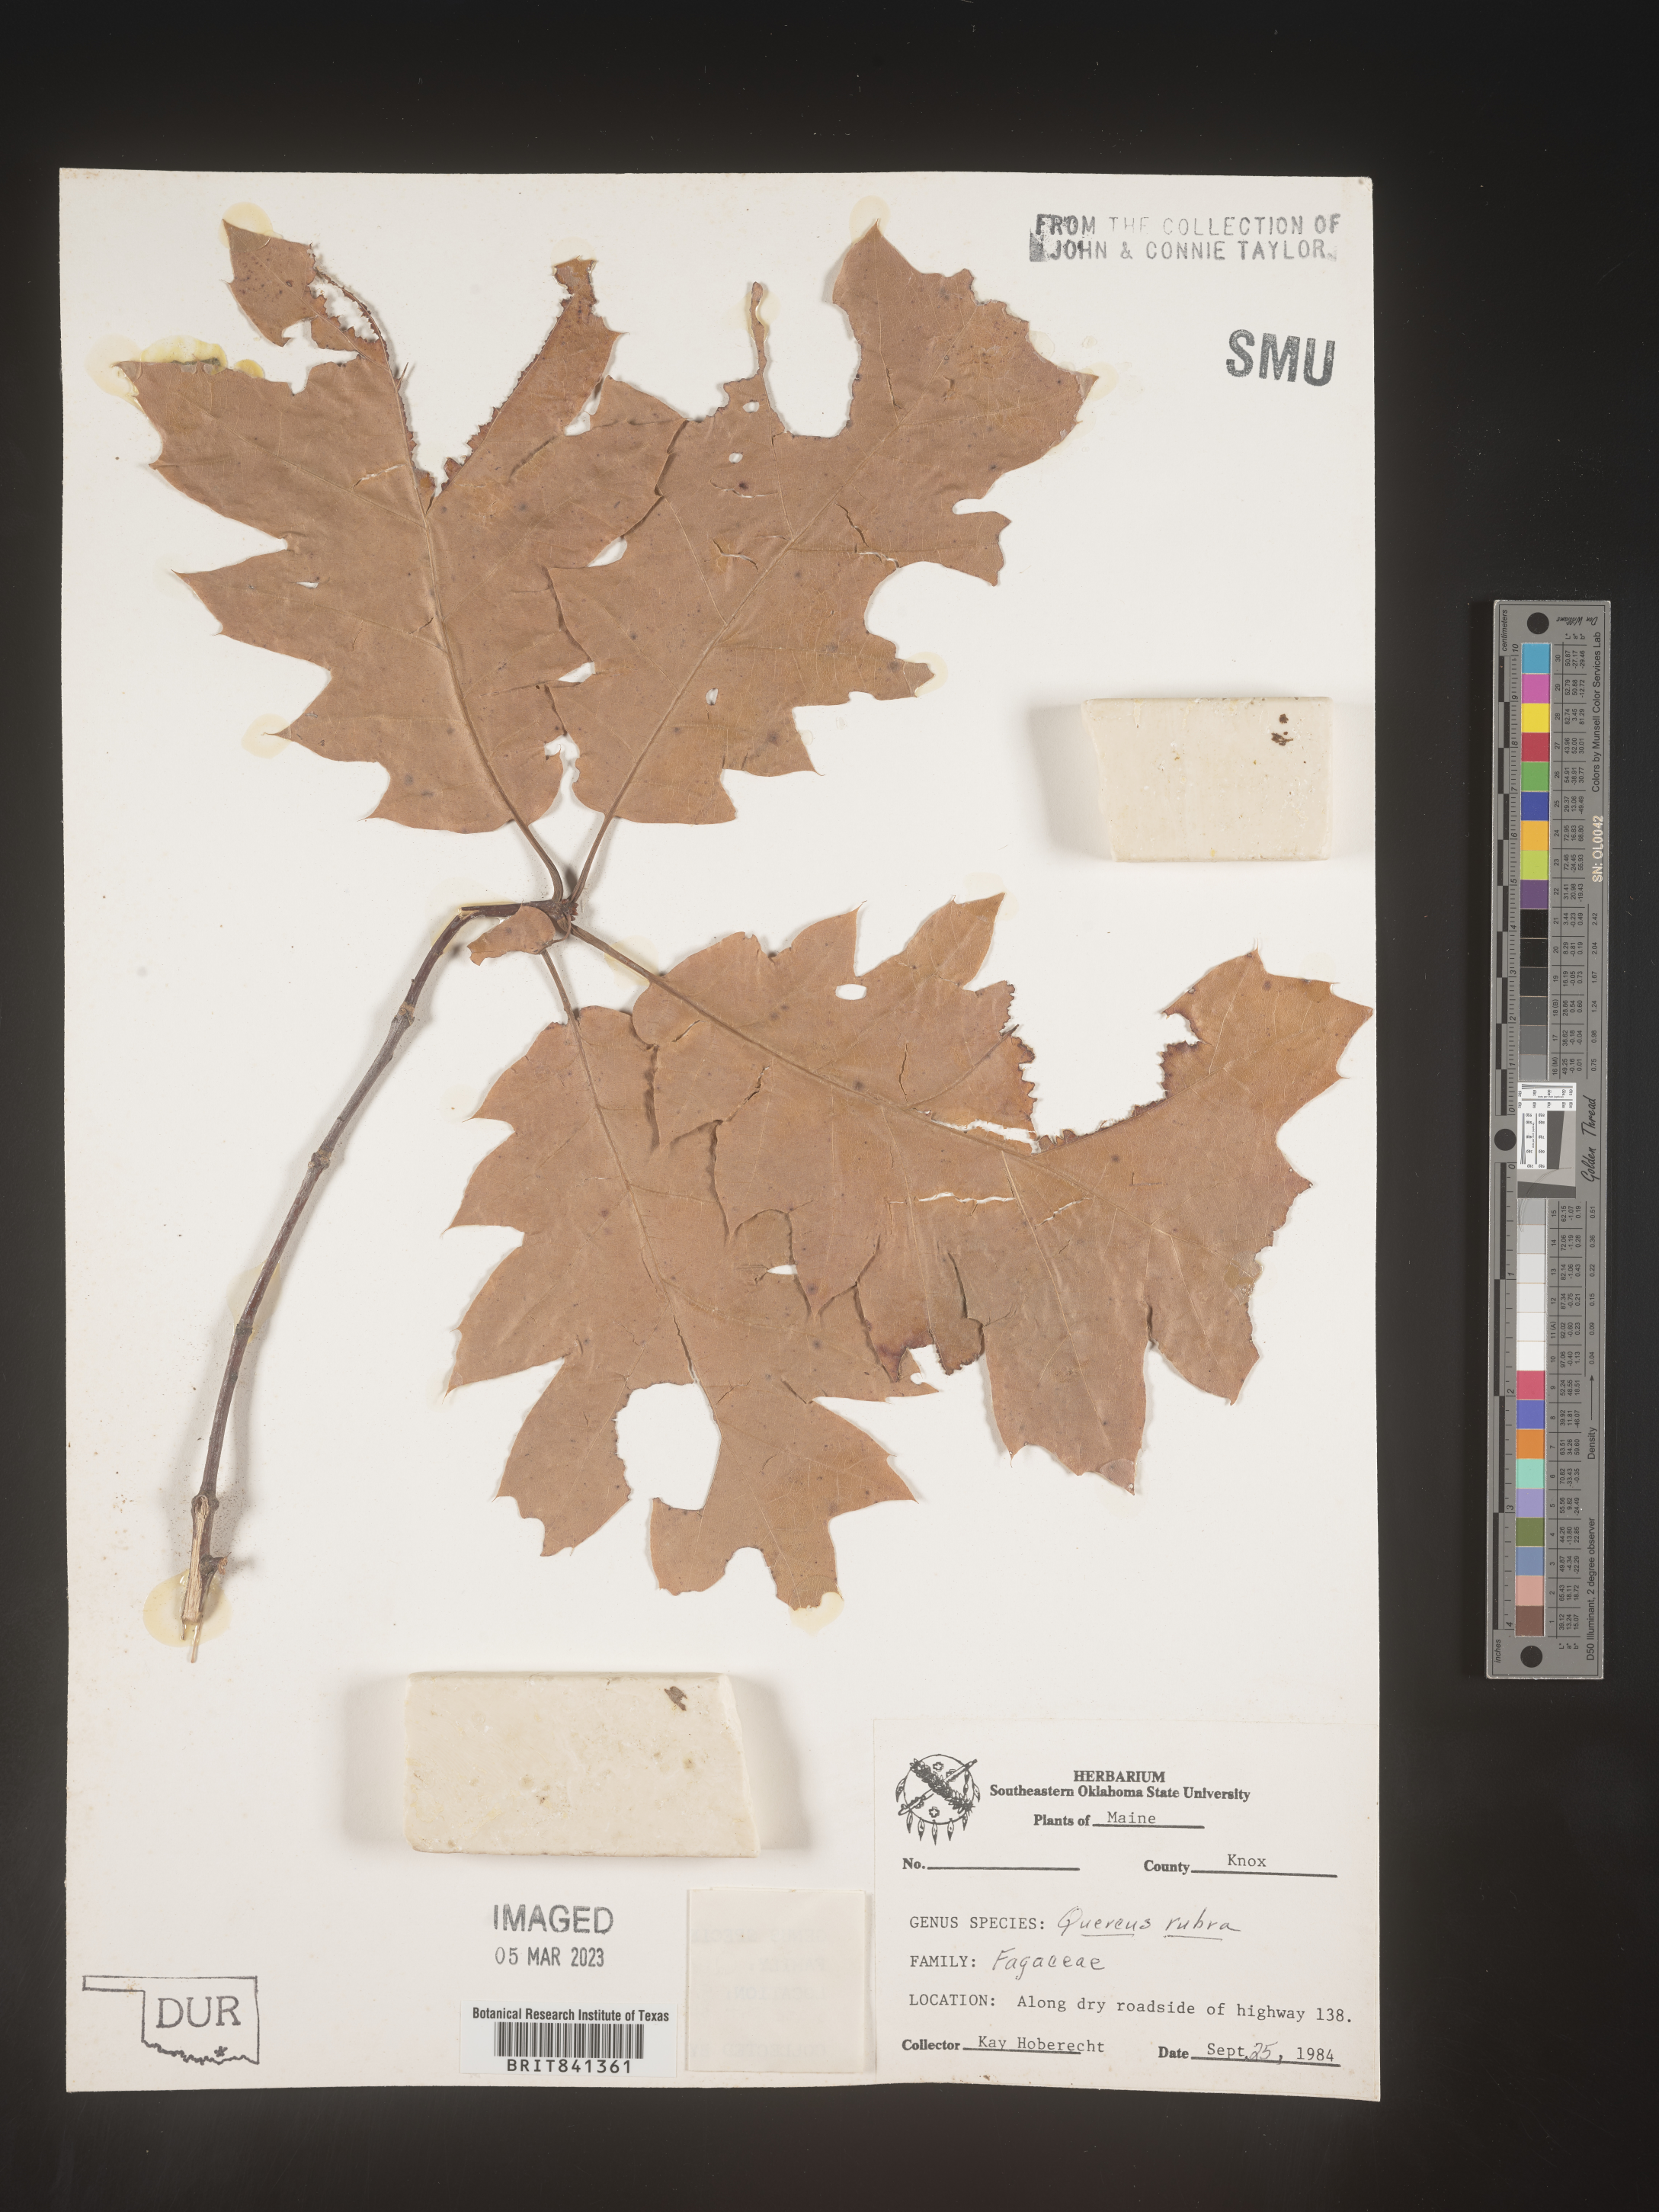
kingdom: Plantae
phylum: Tracheophyta
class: Magnoliopsida
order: Fagales
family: Fagaceae
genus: Quercus
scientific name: Quercus rubra
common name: Red oak
